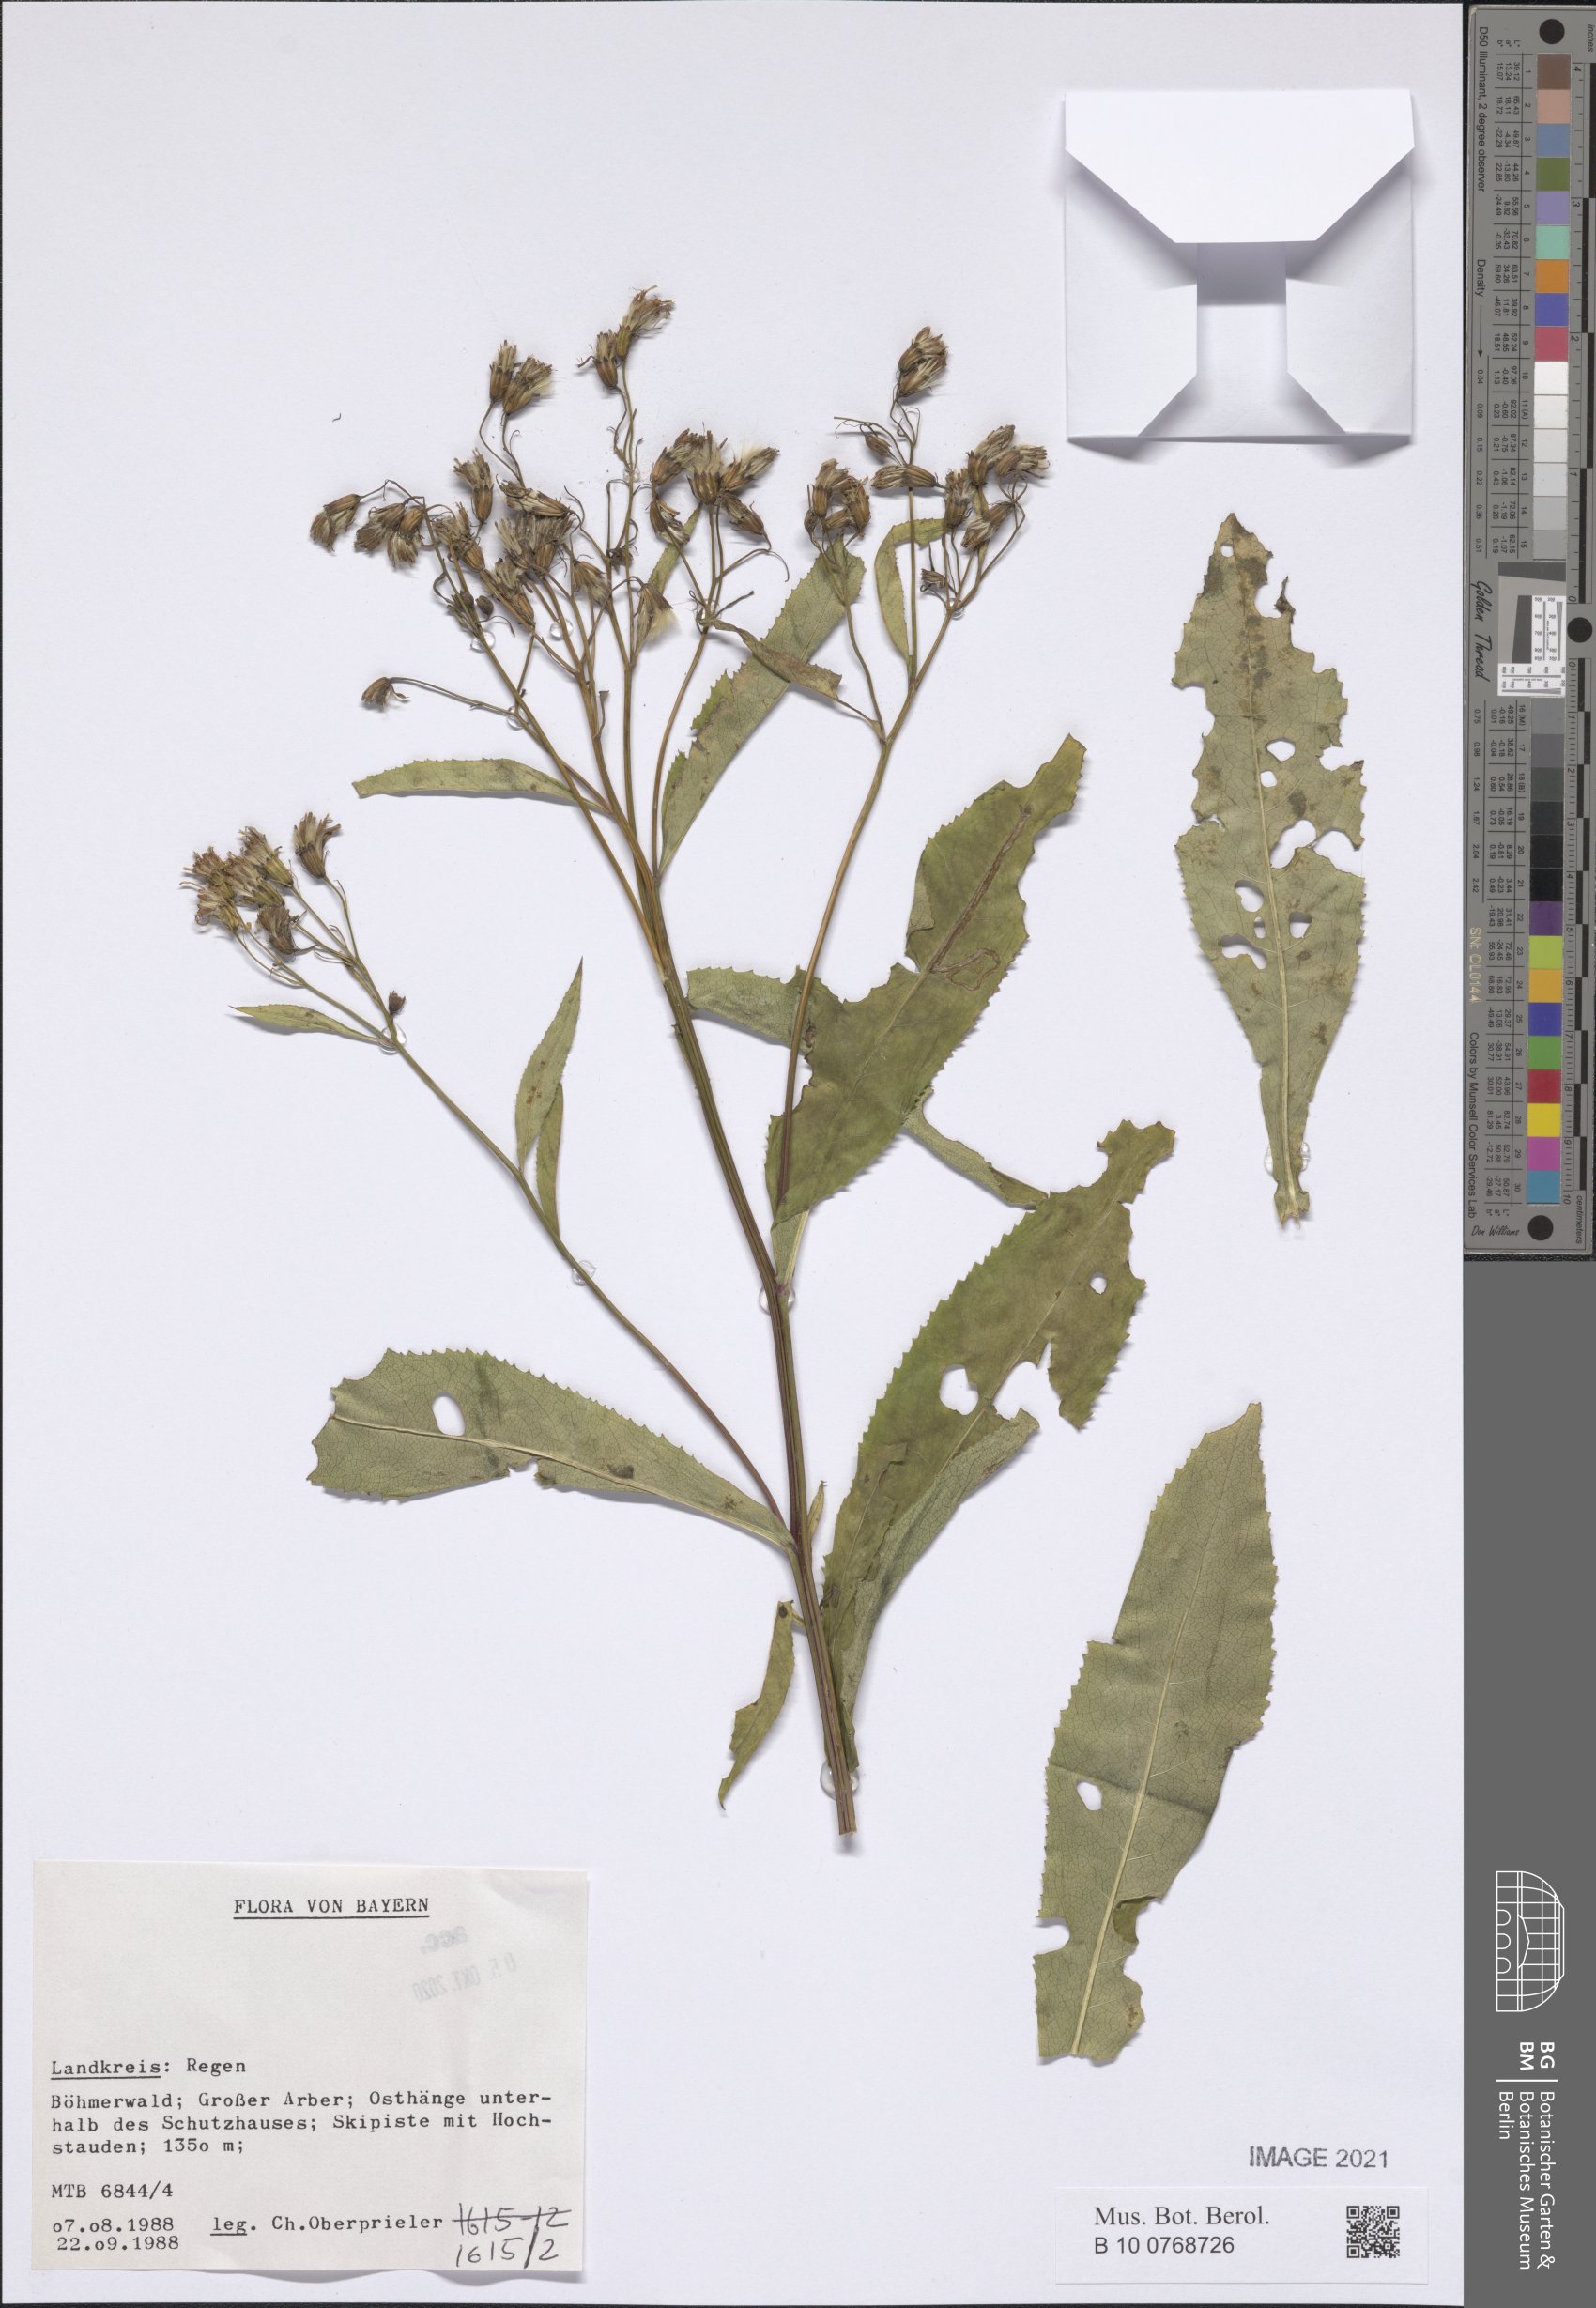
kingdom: Plantae
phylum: Tracheophyta
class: Magnoliopsida
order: Asterales
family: Asteraceae
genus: Senecio
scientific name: Senecio
